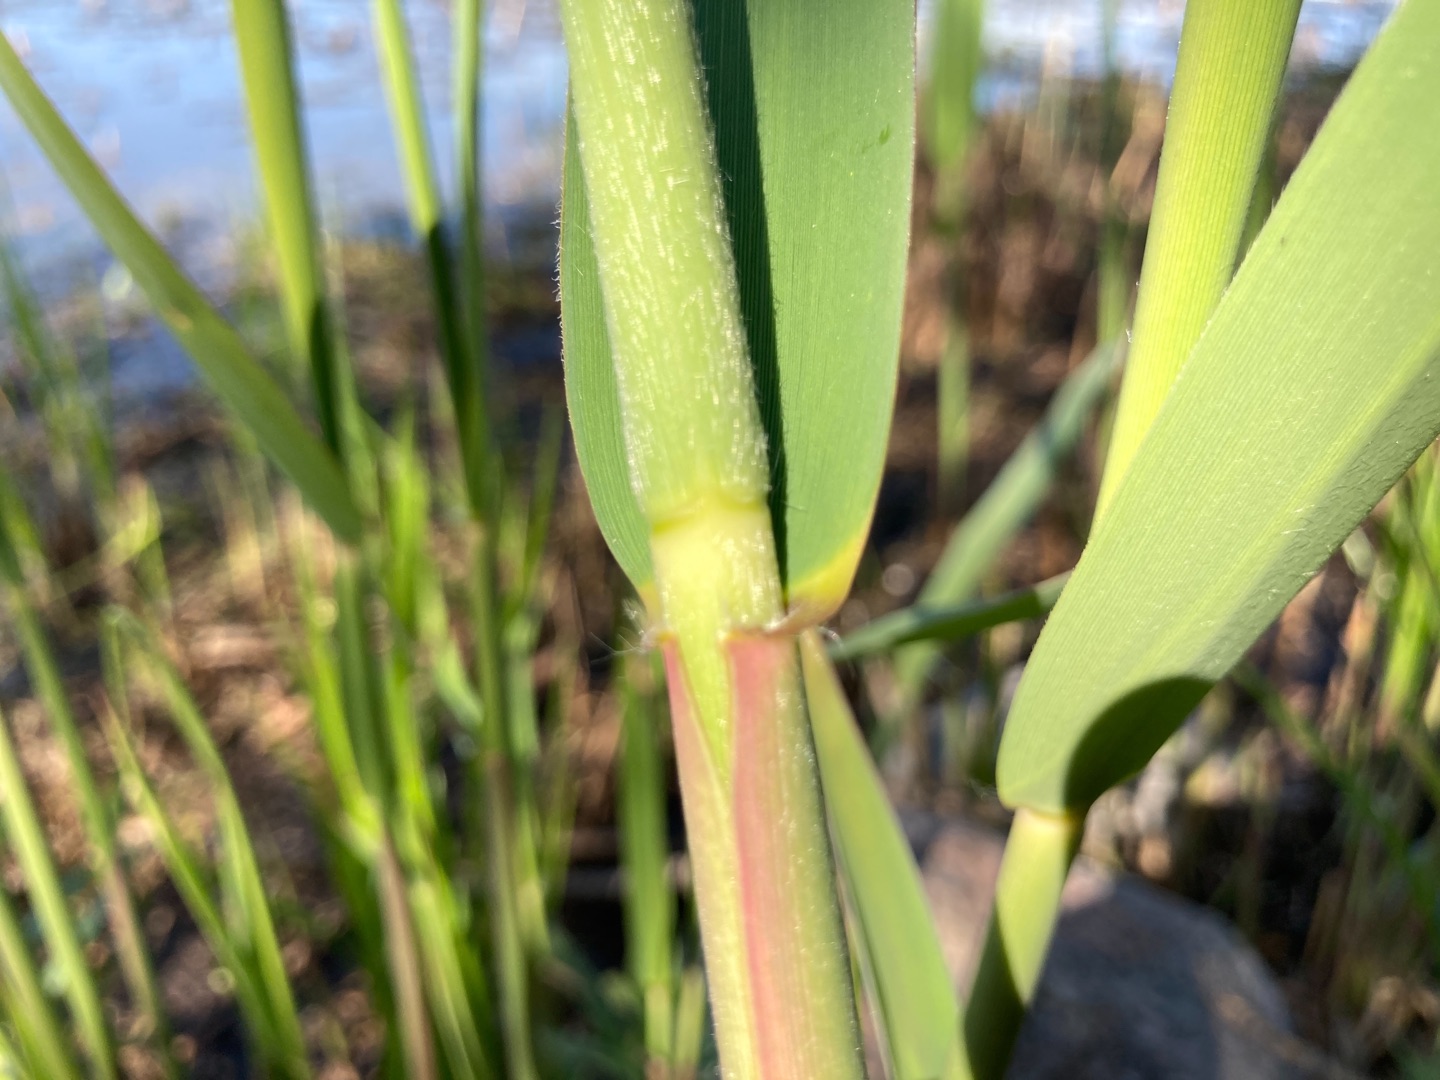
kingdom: Plantae
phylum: Tracheophyta
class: Liliopsida
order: Poales
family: Poaceae
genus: Phragmites
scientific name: Phragmites australis
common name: Tagrør
